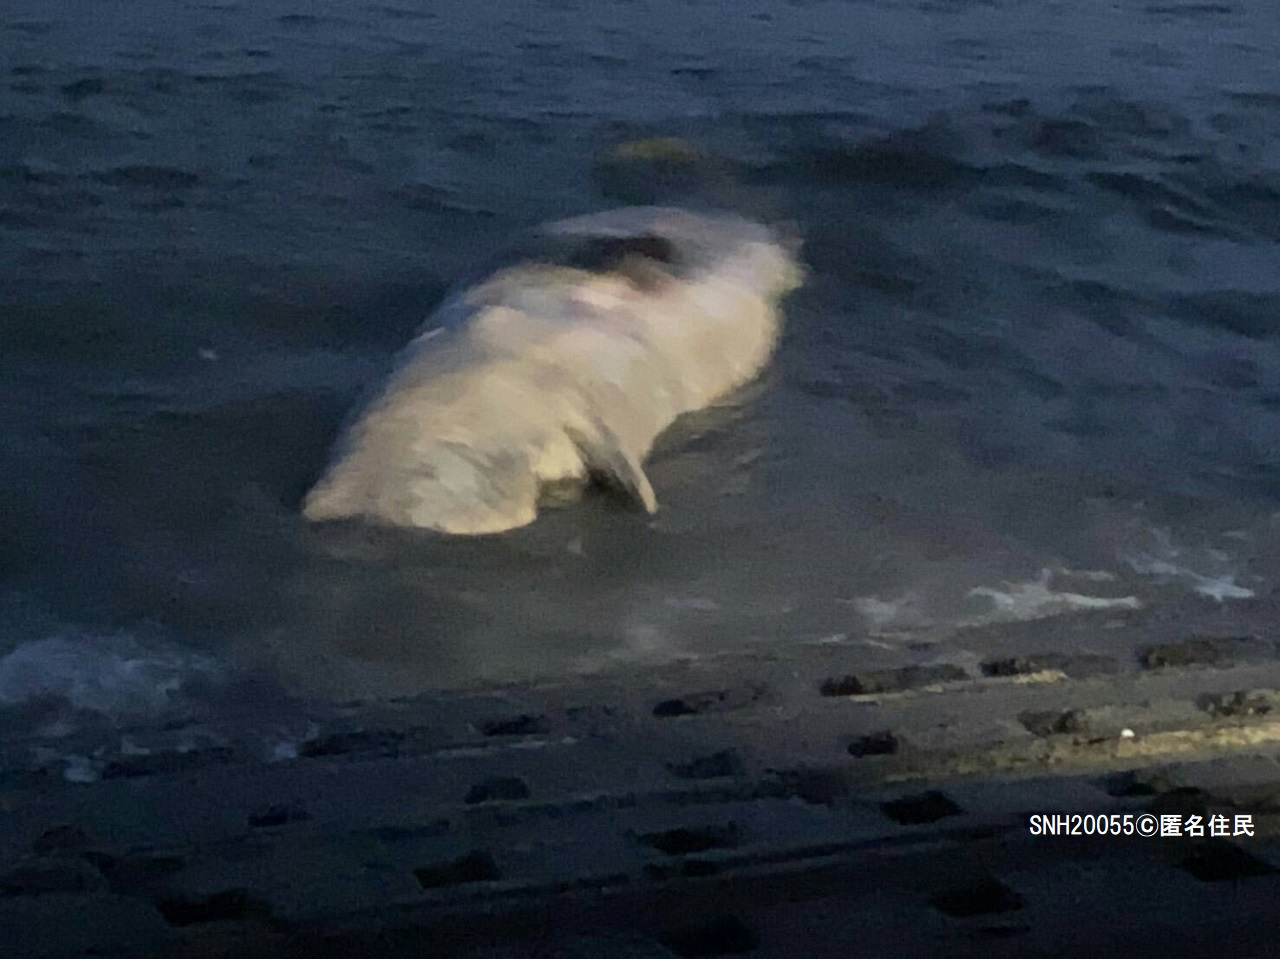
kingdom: Animalia
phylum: Chordata
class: Mammalia
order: Cetacea
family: Physeteridae
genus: Physeter
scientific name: Physeter macrocephalus
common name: Sperm whale
